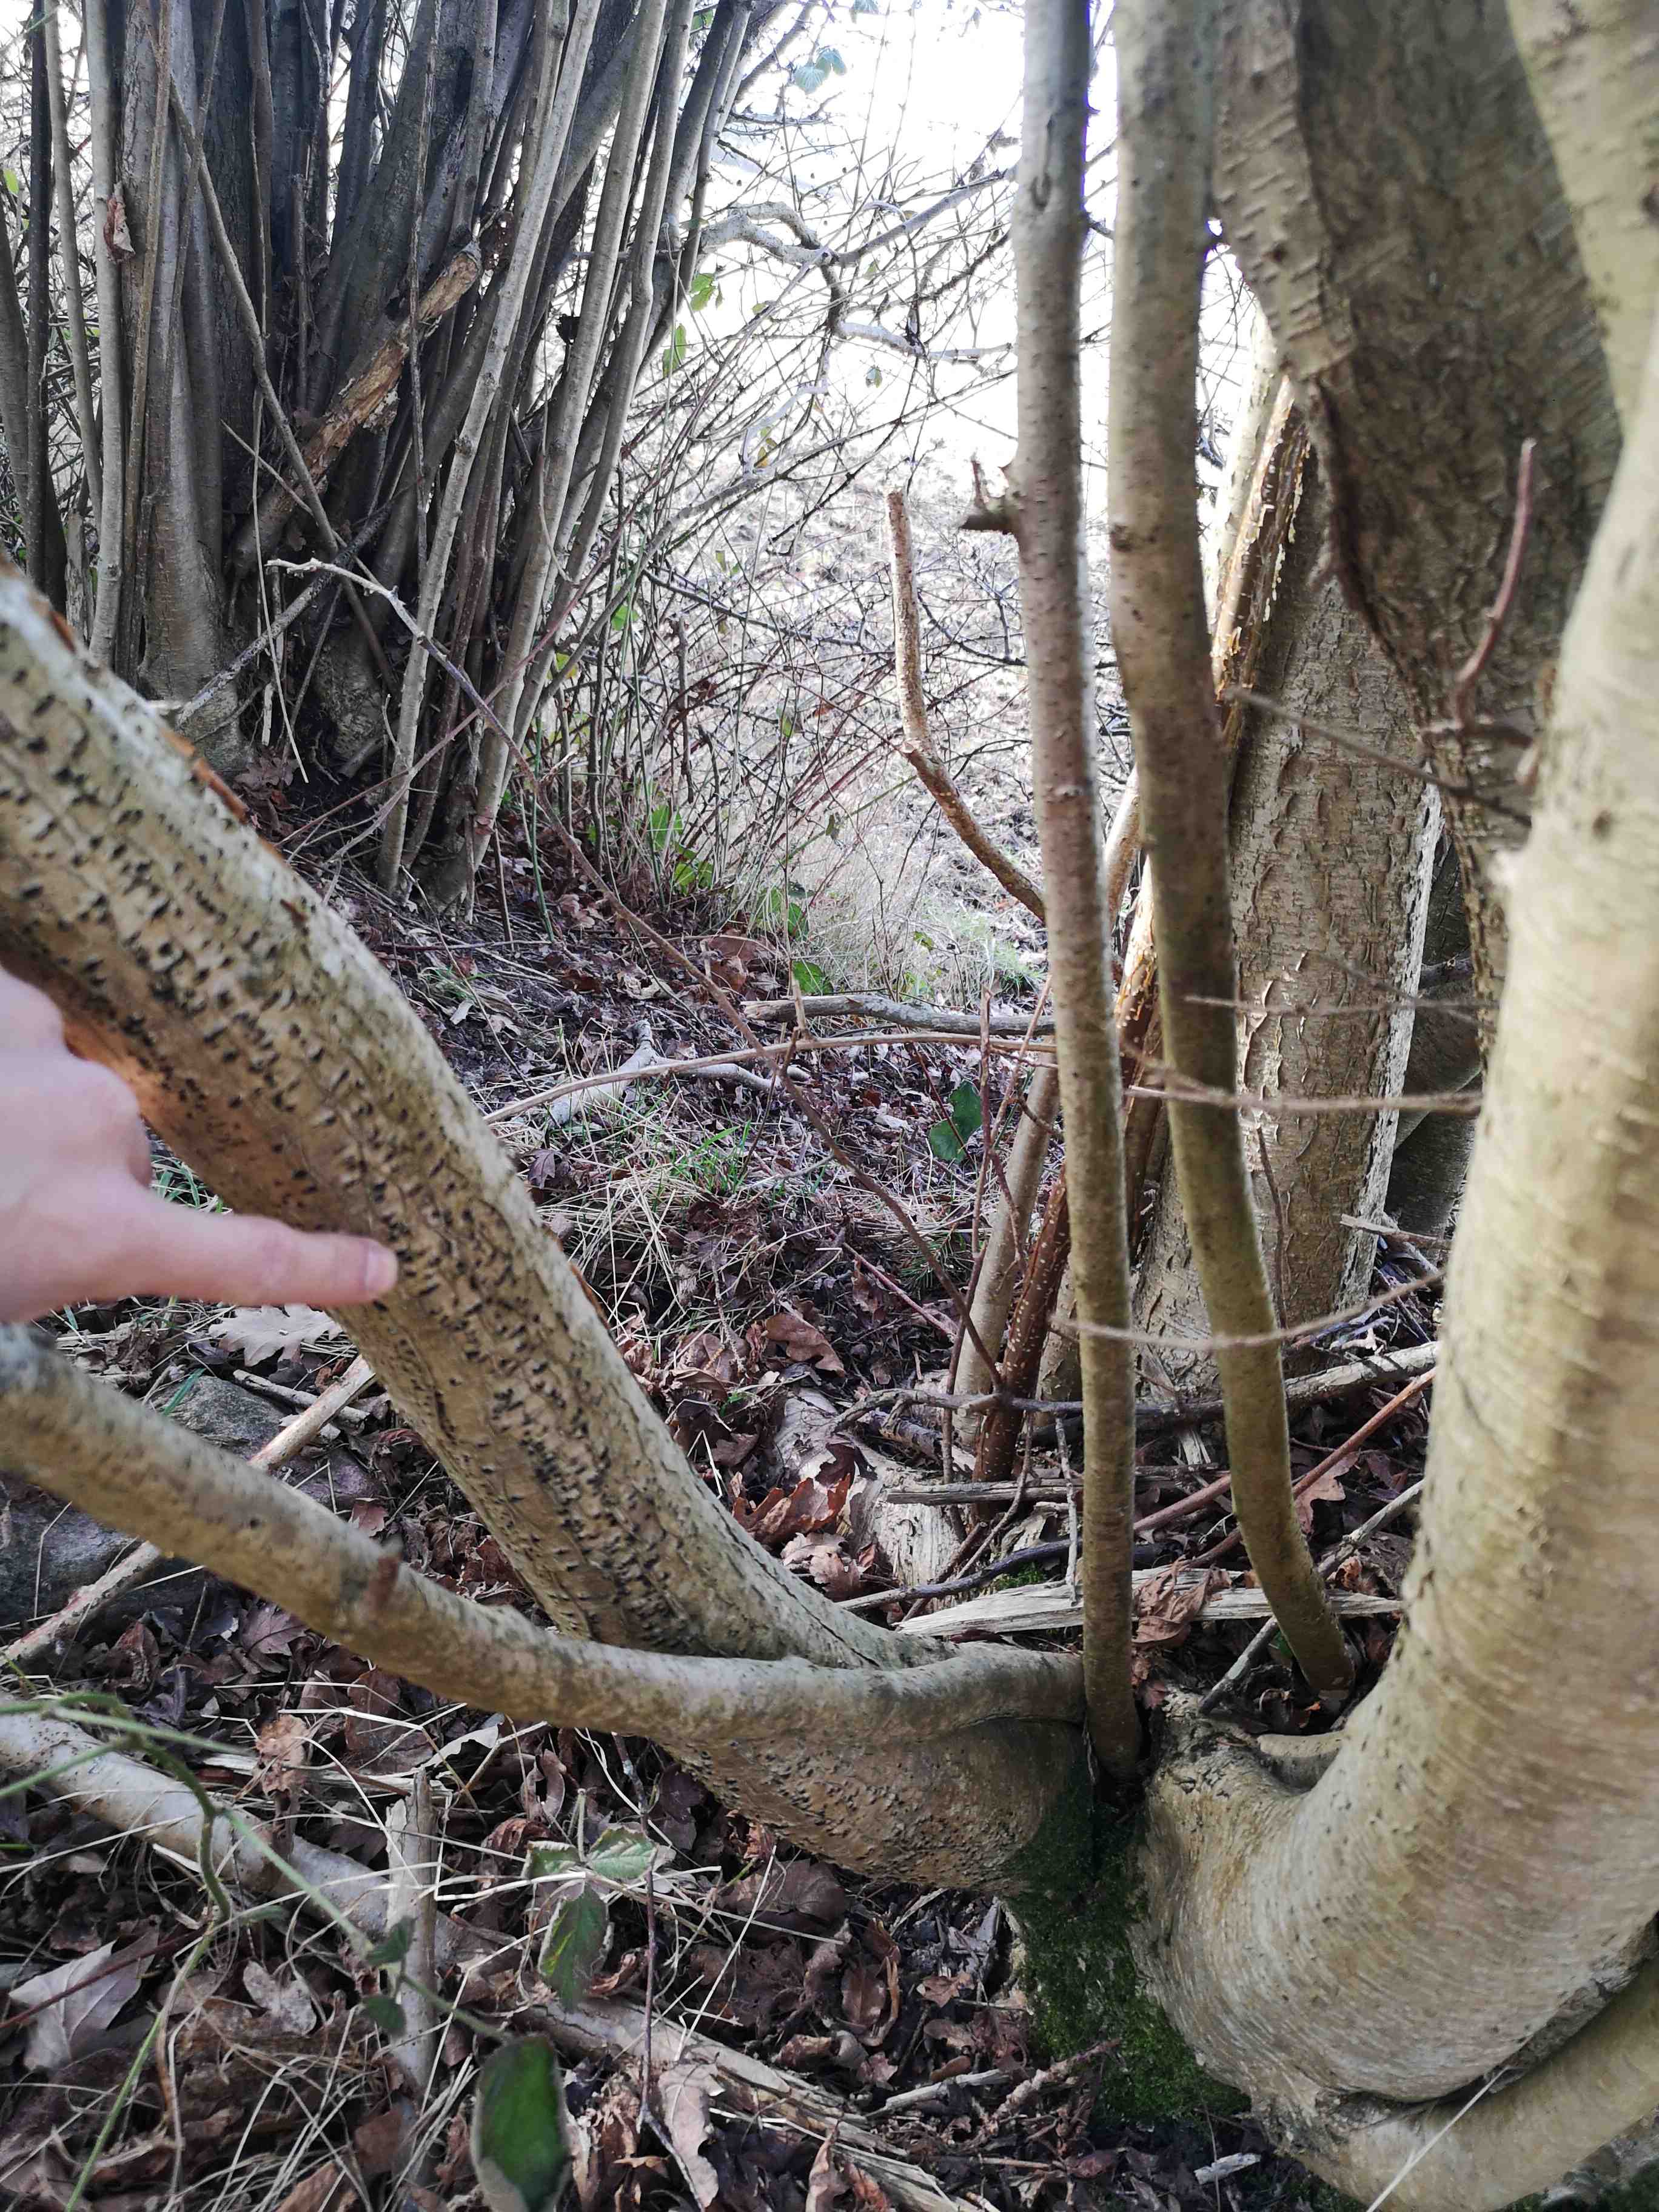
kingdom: Fungi
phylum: Ascomycota
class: Sordariomycetes
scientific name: Sordariomycetes
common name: kernesvampklassen
